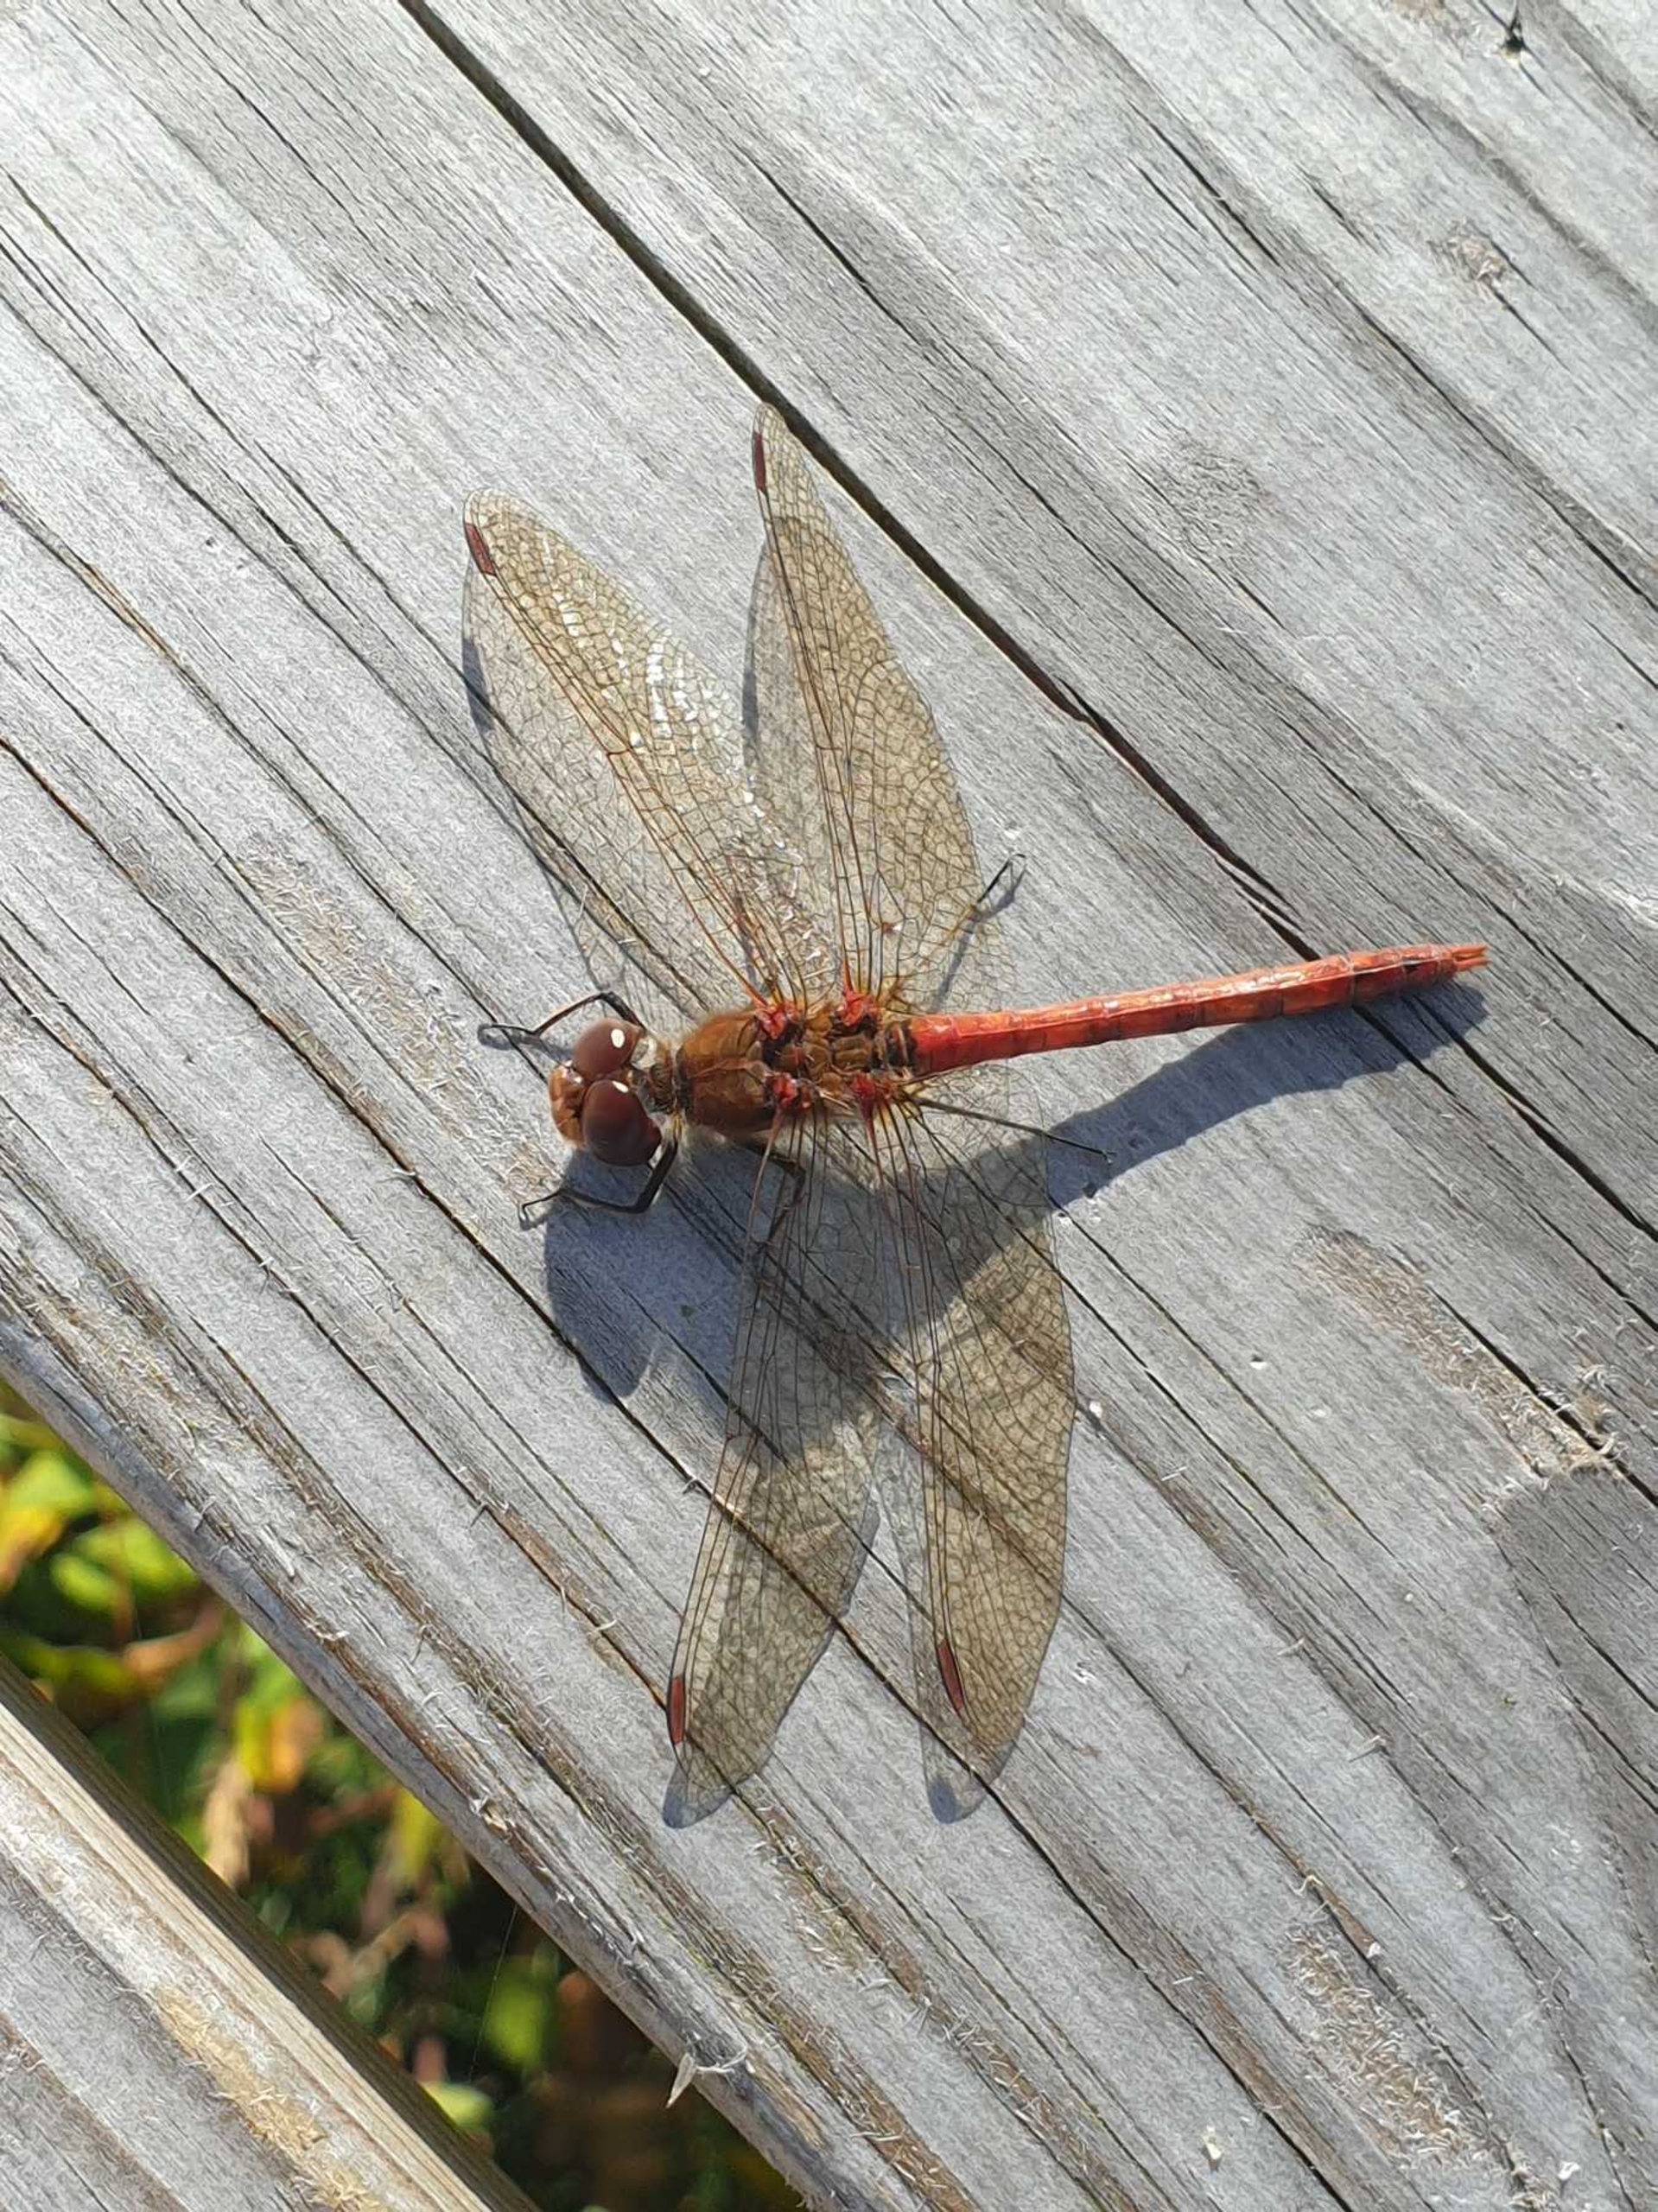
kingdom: Animalia
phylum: Arthropoda
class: Insecta
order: Odonata
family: Libellulidae
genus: Sympetrum
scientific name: Sympetrum striolatum
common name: Stor hedelibel
